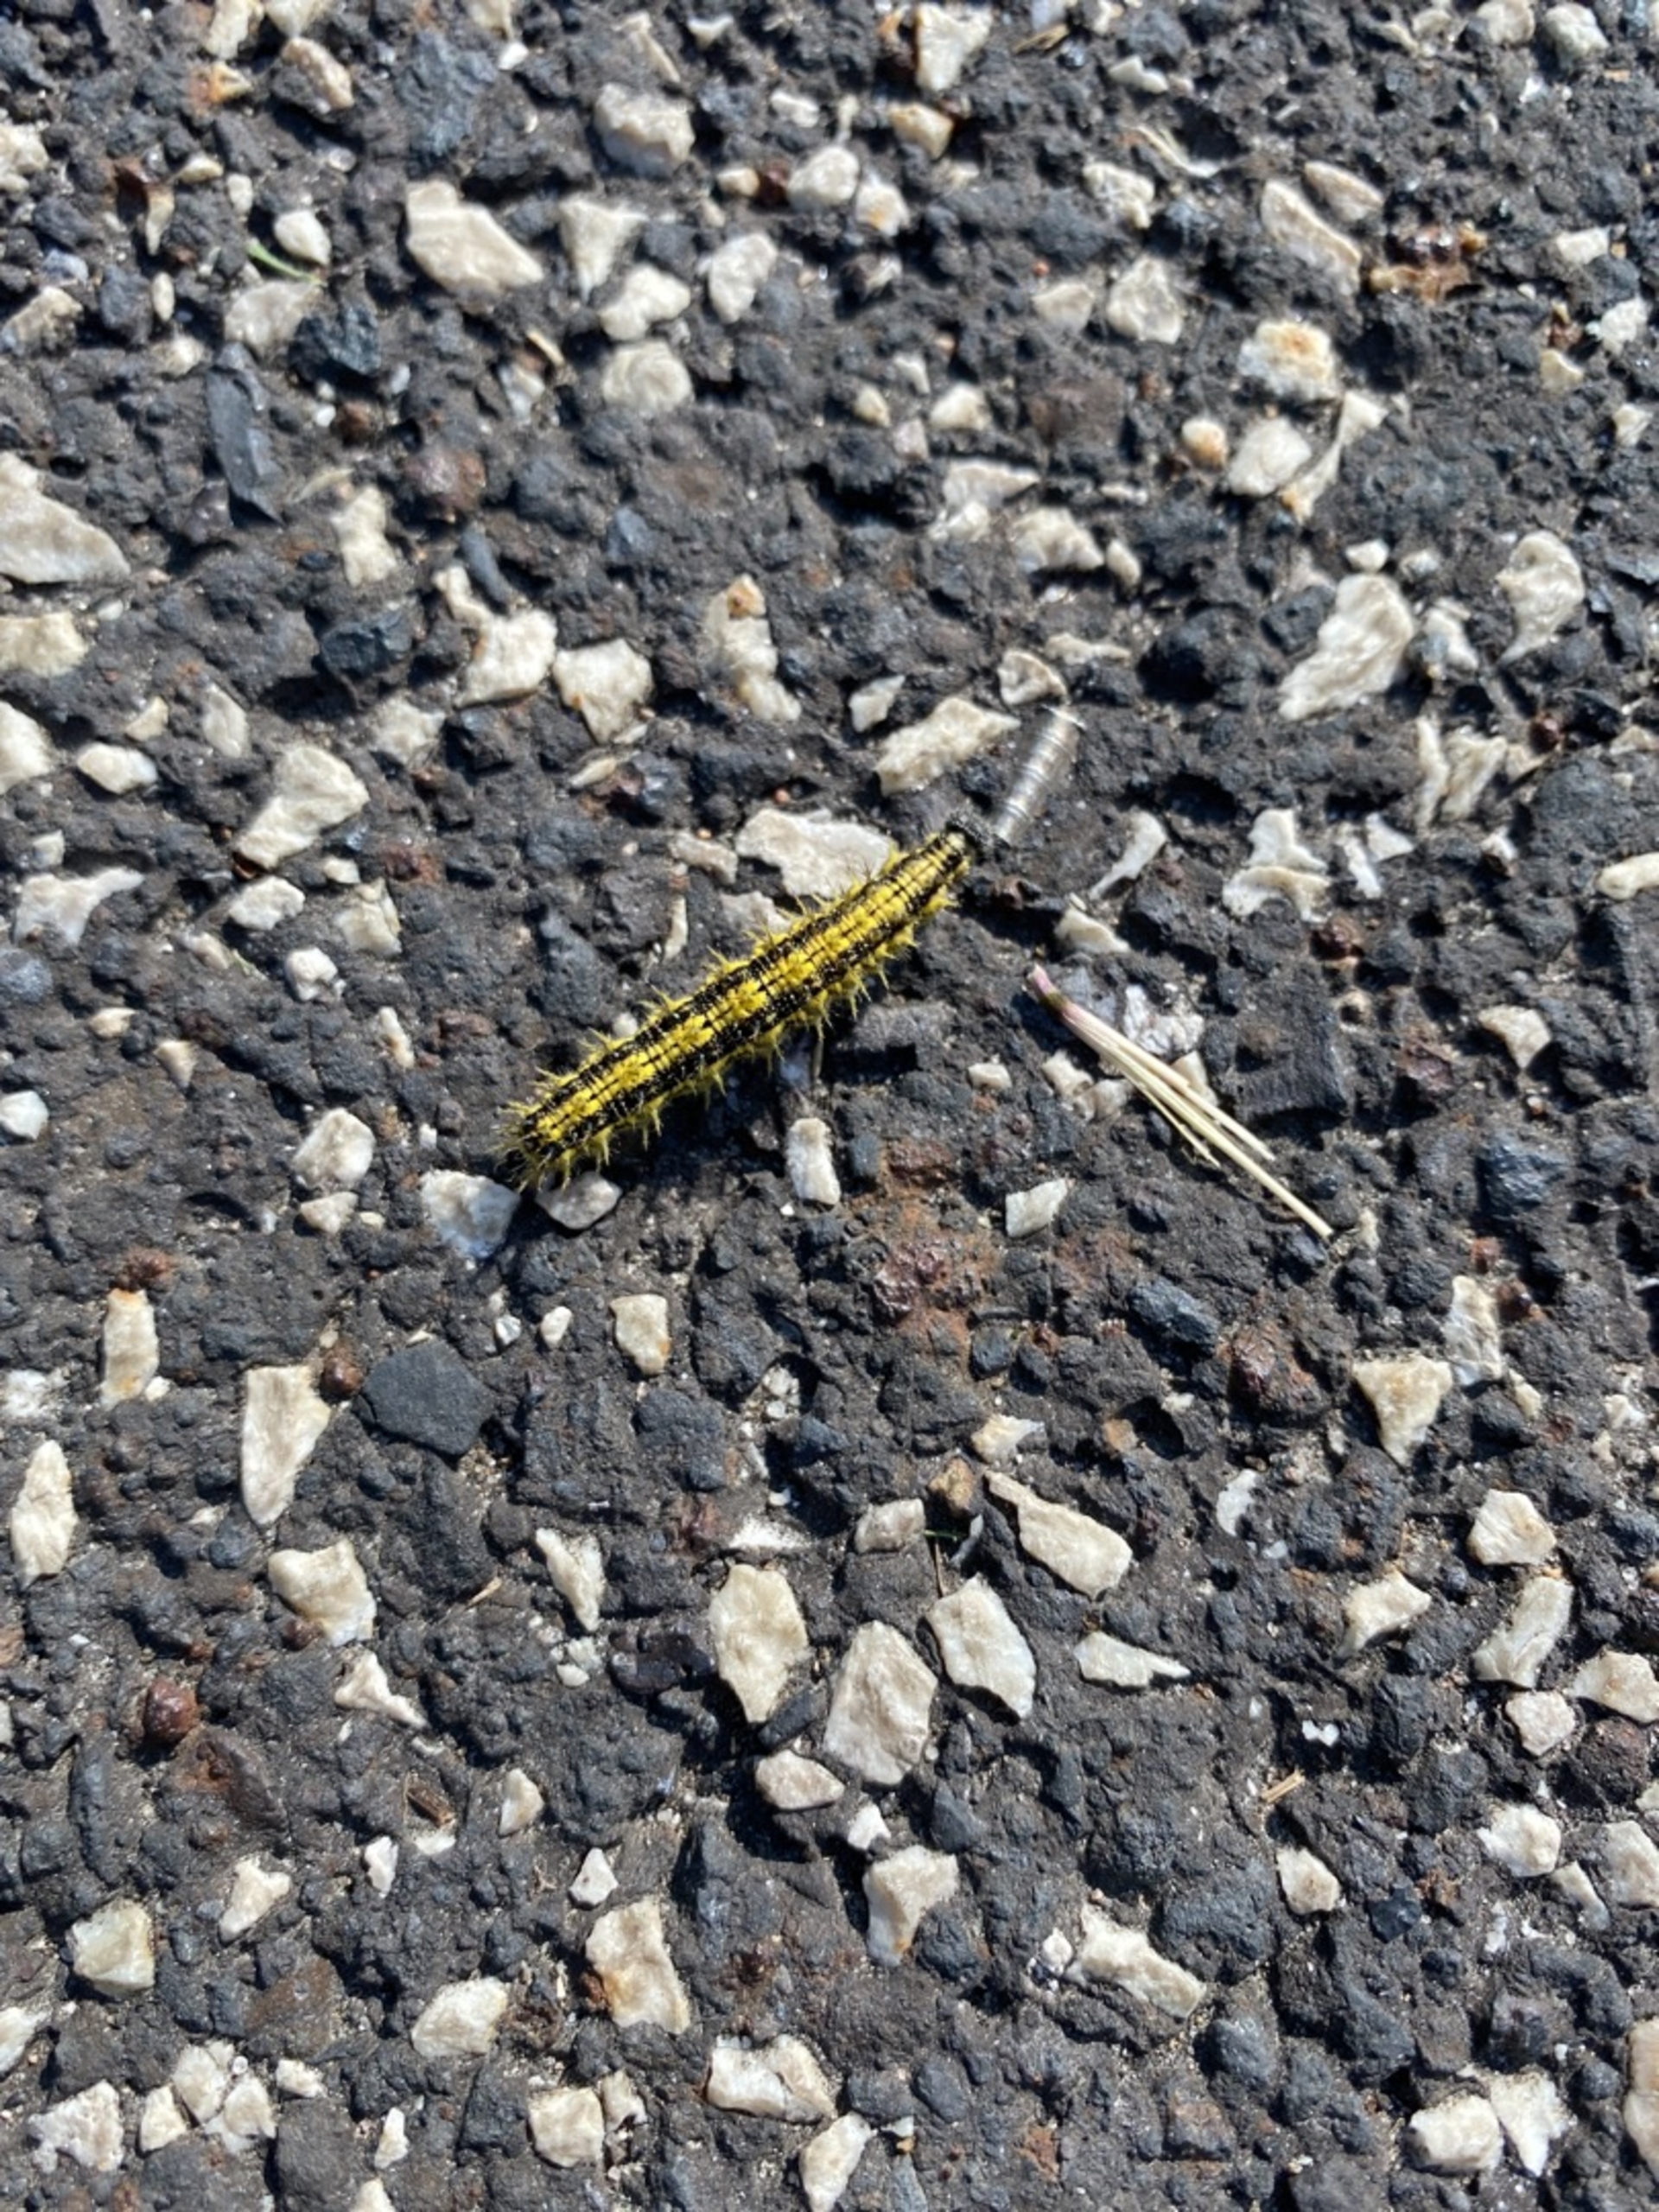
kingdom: Animalia
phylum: Arthropoda
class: Insecta
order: Lepidoptera
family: Nymphalidae
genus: Aglais
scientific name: Aglais urticae
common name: Nældens takvinge
